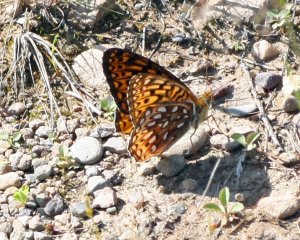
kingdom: Animalia
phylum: Arthropoda
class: Insecta
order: Lepidoptera
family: Nymphalidae
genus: Speyeria
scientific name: Speyeria atlantis
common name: Atlantis Fritillary
